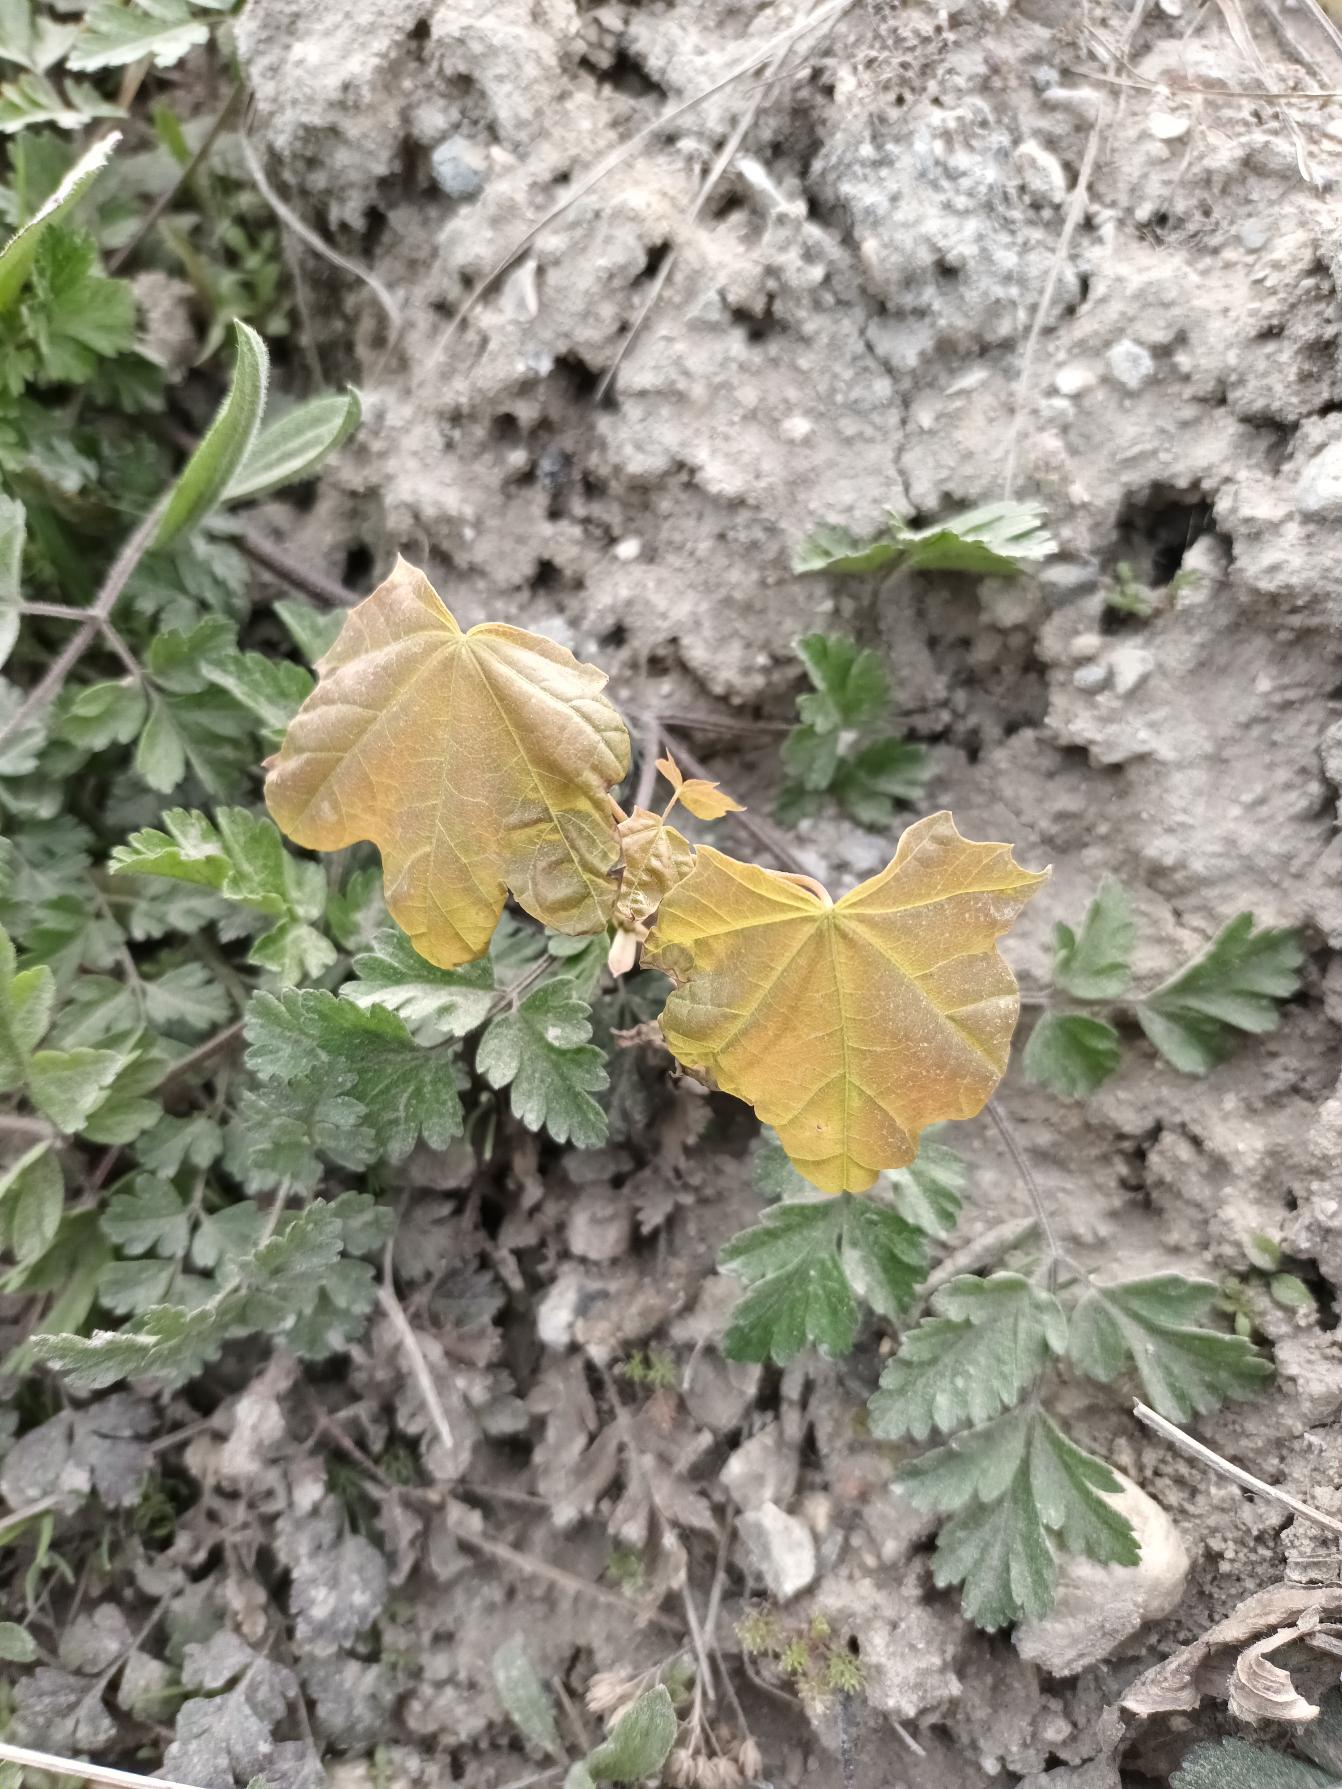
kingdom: Plantae
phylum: Tracheophyta
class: Magnoliopsida
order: Sapindales
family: Sapindaceae
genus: Acer
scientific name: Acer pseudoplatanus
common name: Ahorn
